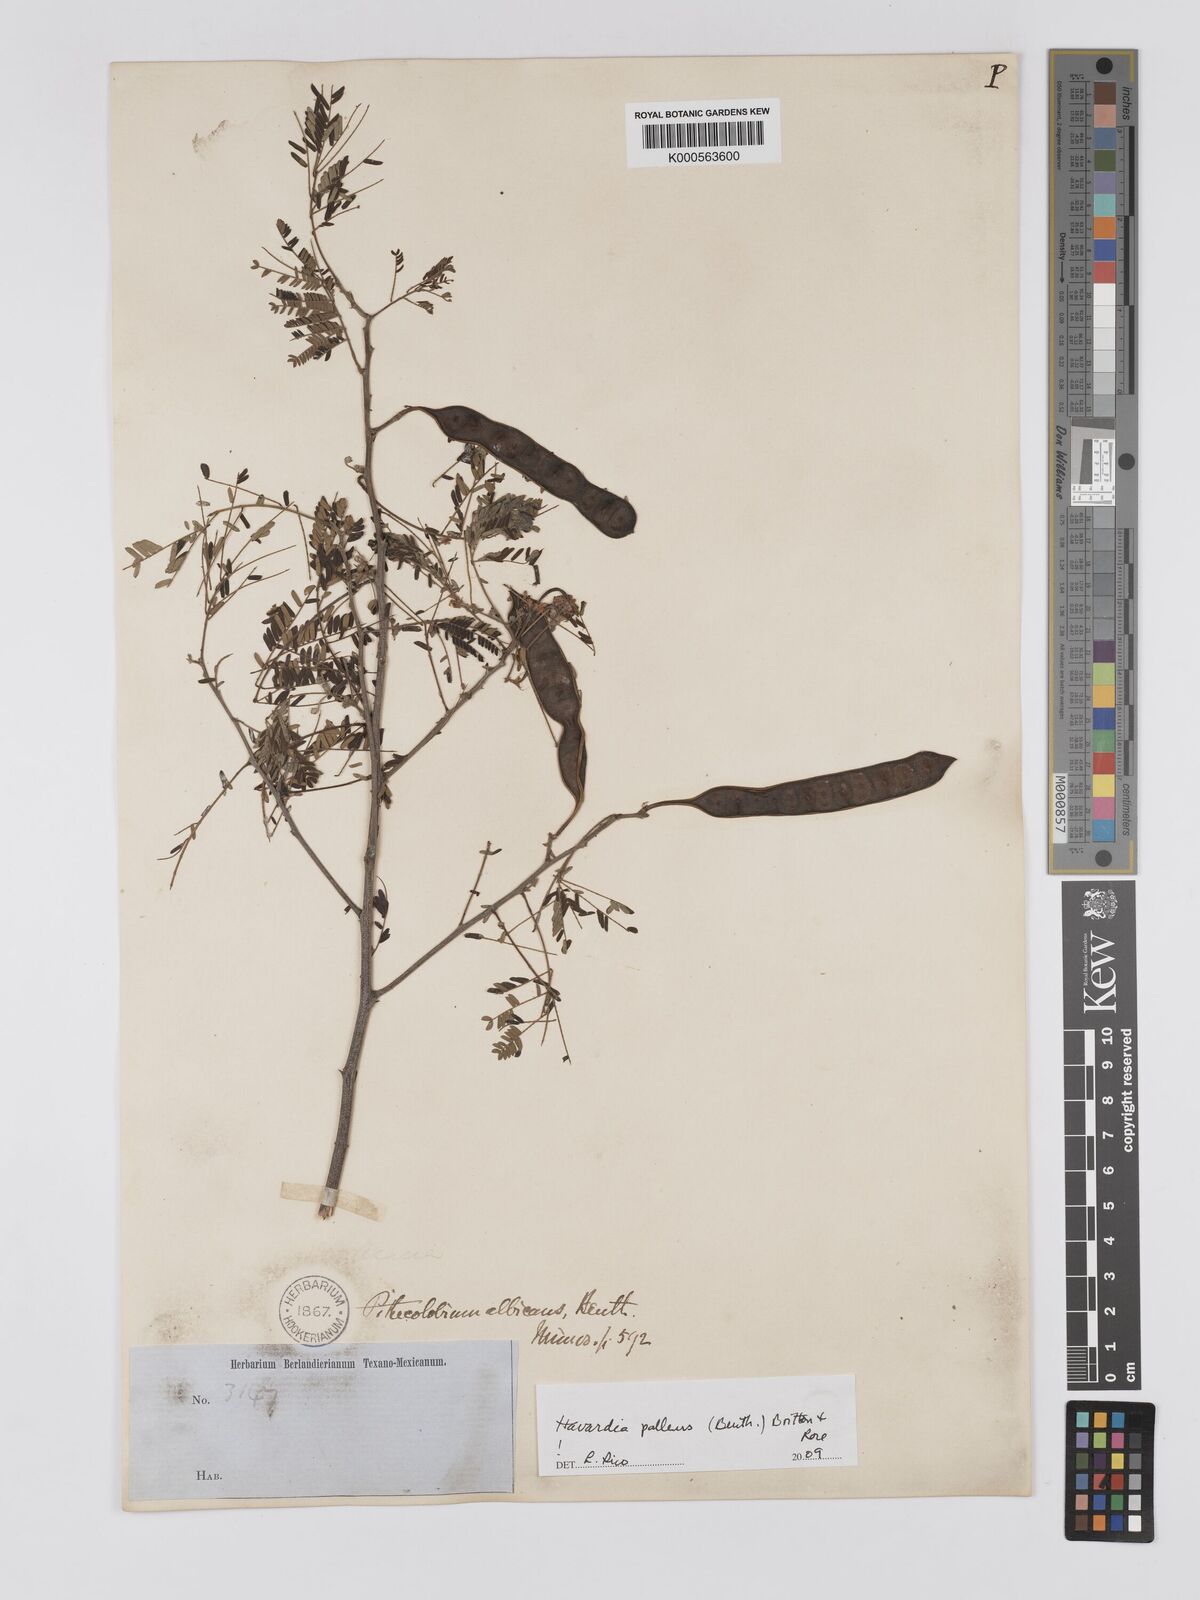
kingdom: Plantae
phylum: Tracheophyta
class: Magnoliopsida
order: Fabales
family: Fabaceae
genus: Havardia
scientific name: Havardia albicans
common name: Huisache
